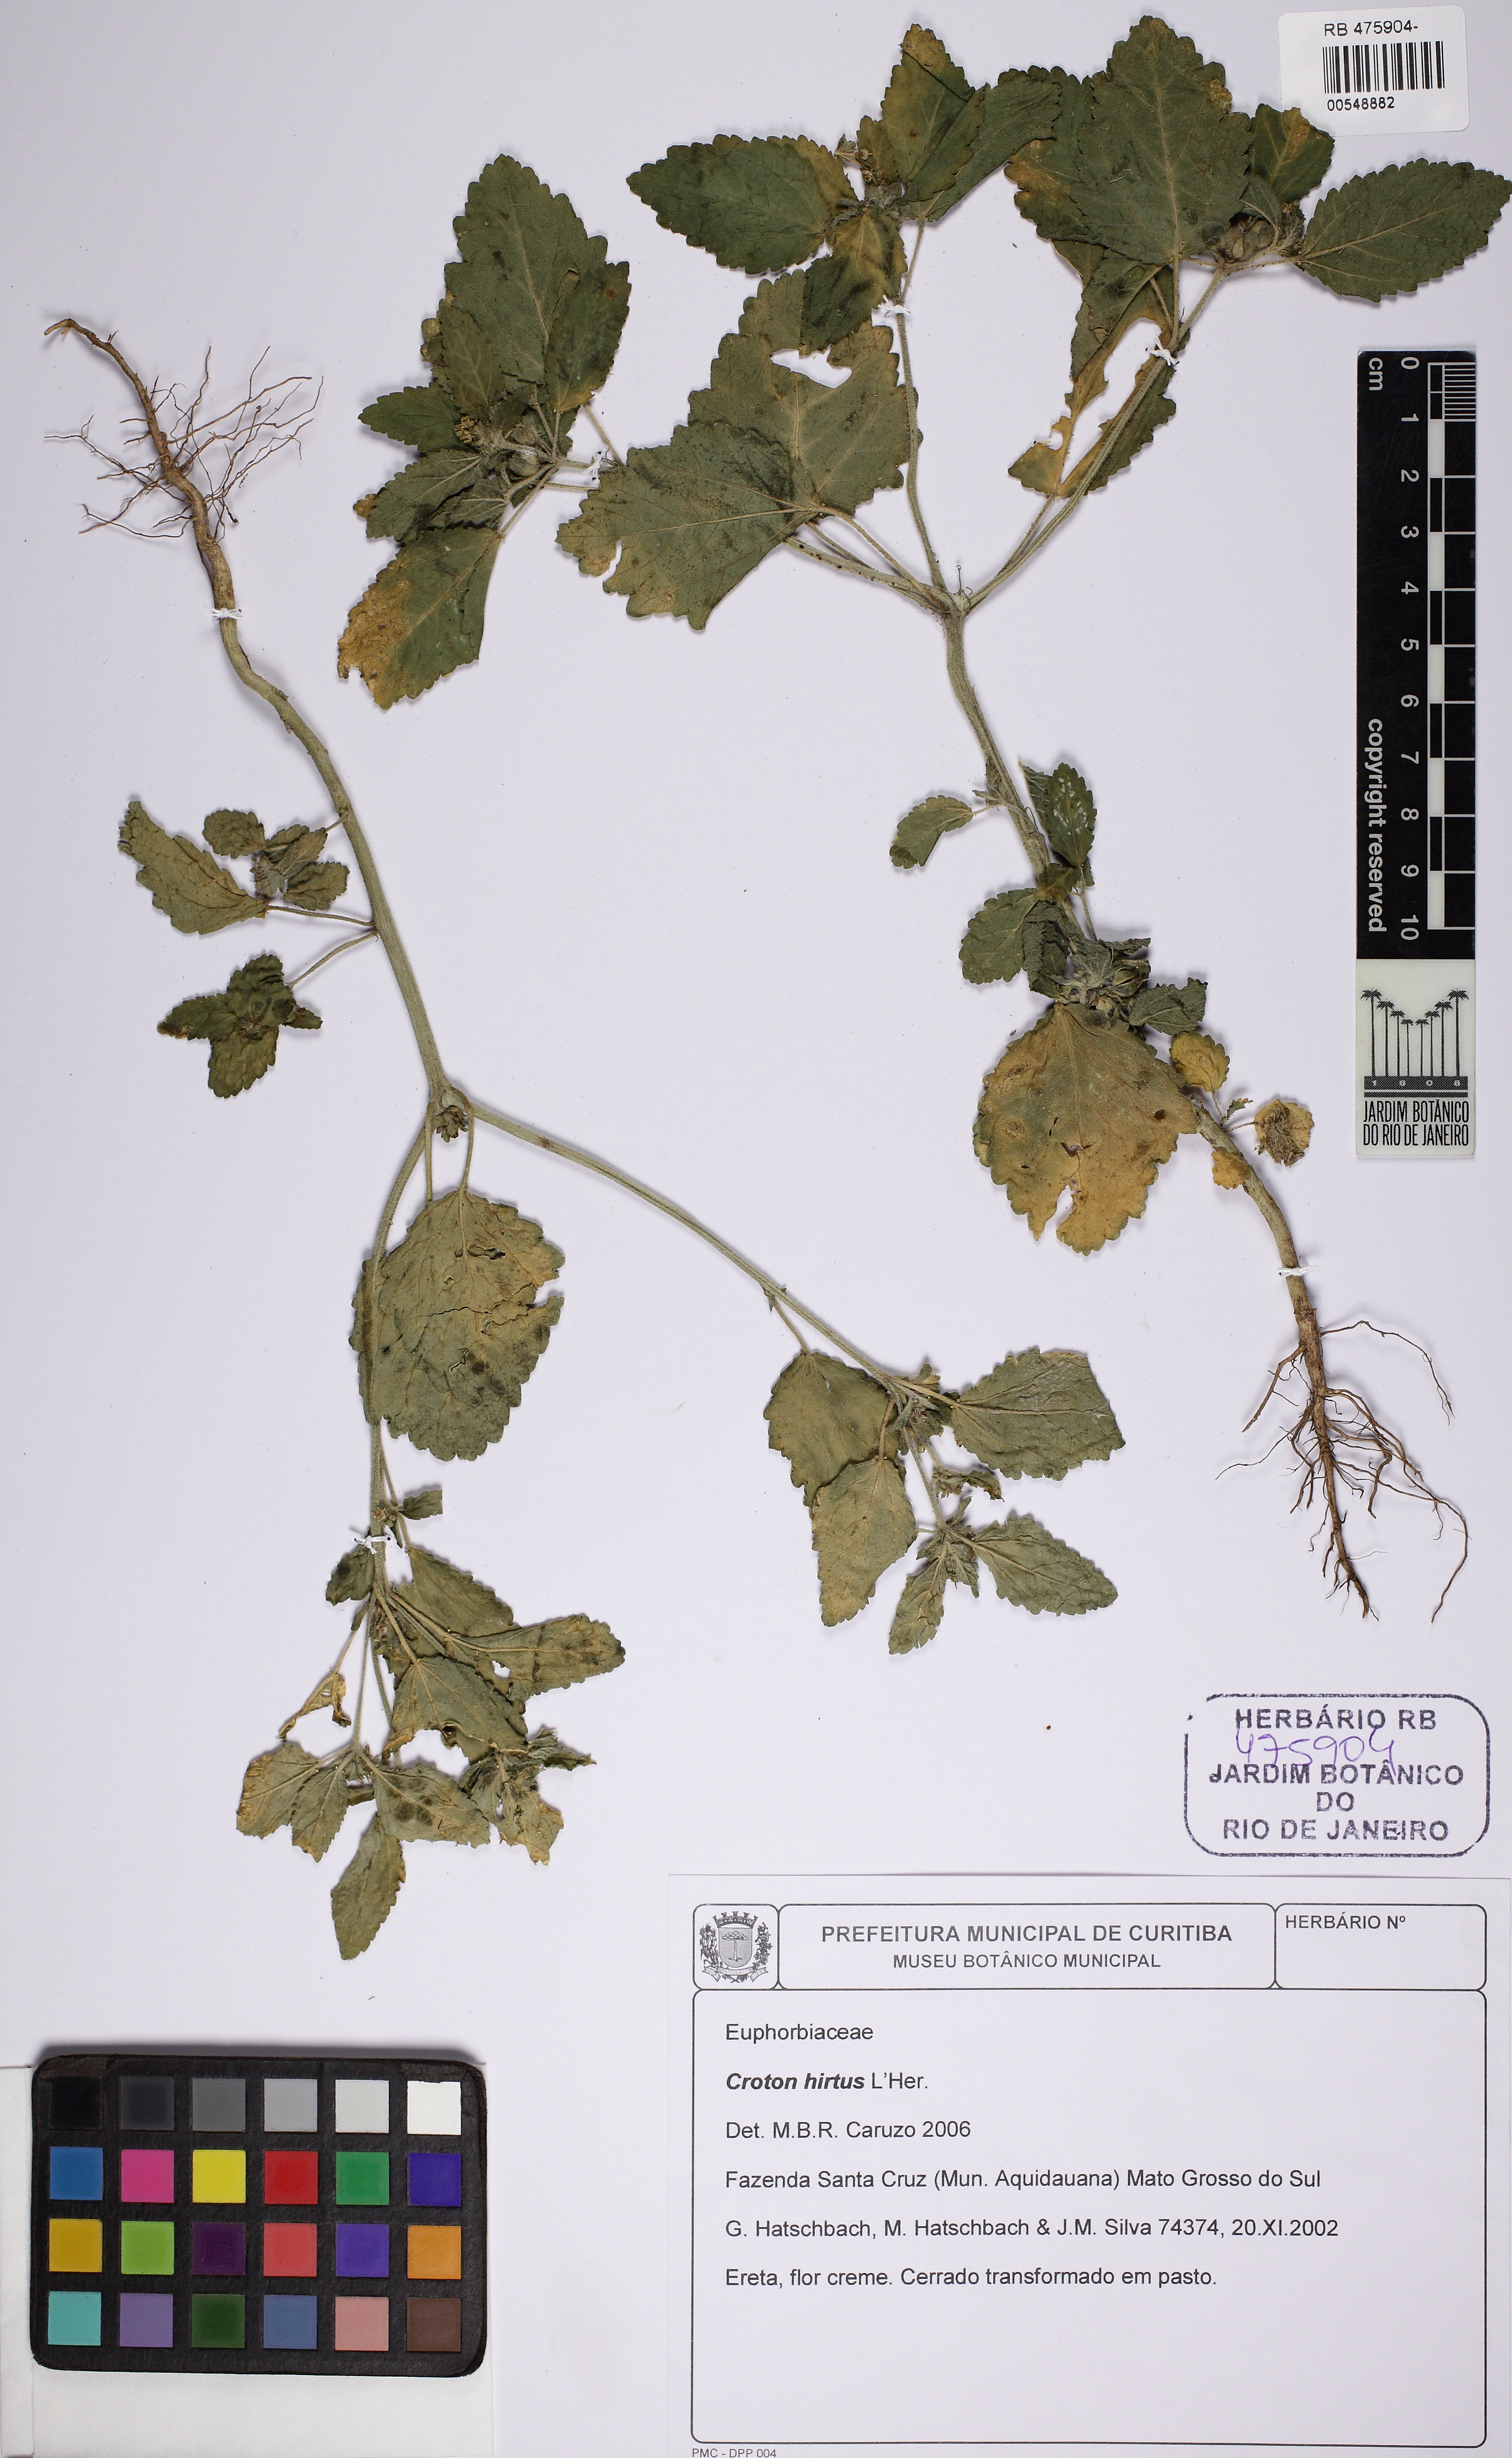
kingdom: Plantae
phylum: Tracheophyta
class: Magnoliopsida
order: Malpighiales
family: Euphorbiaceae
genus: Croton
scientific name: Croton hirtus
